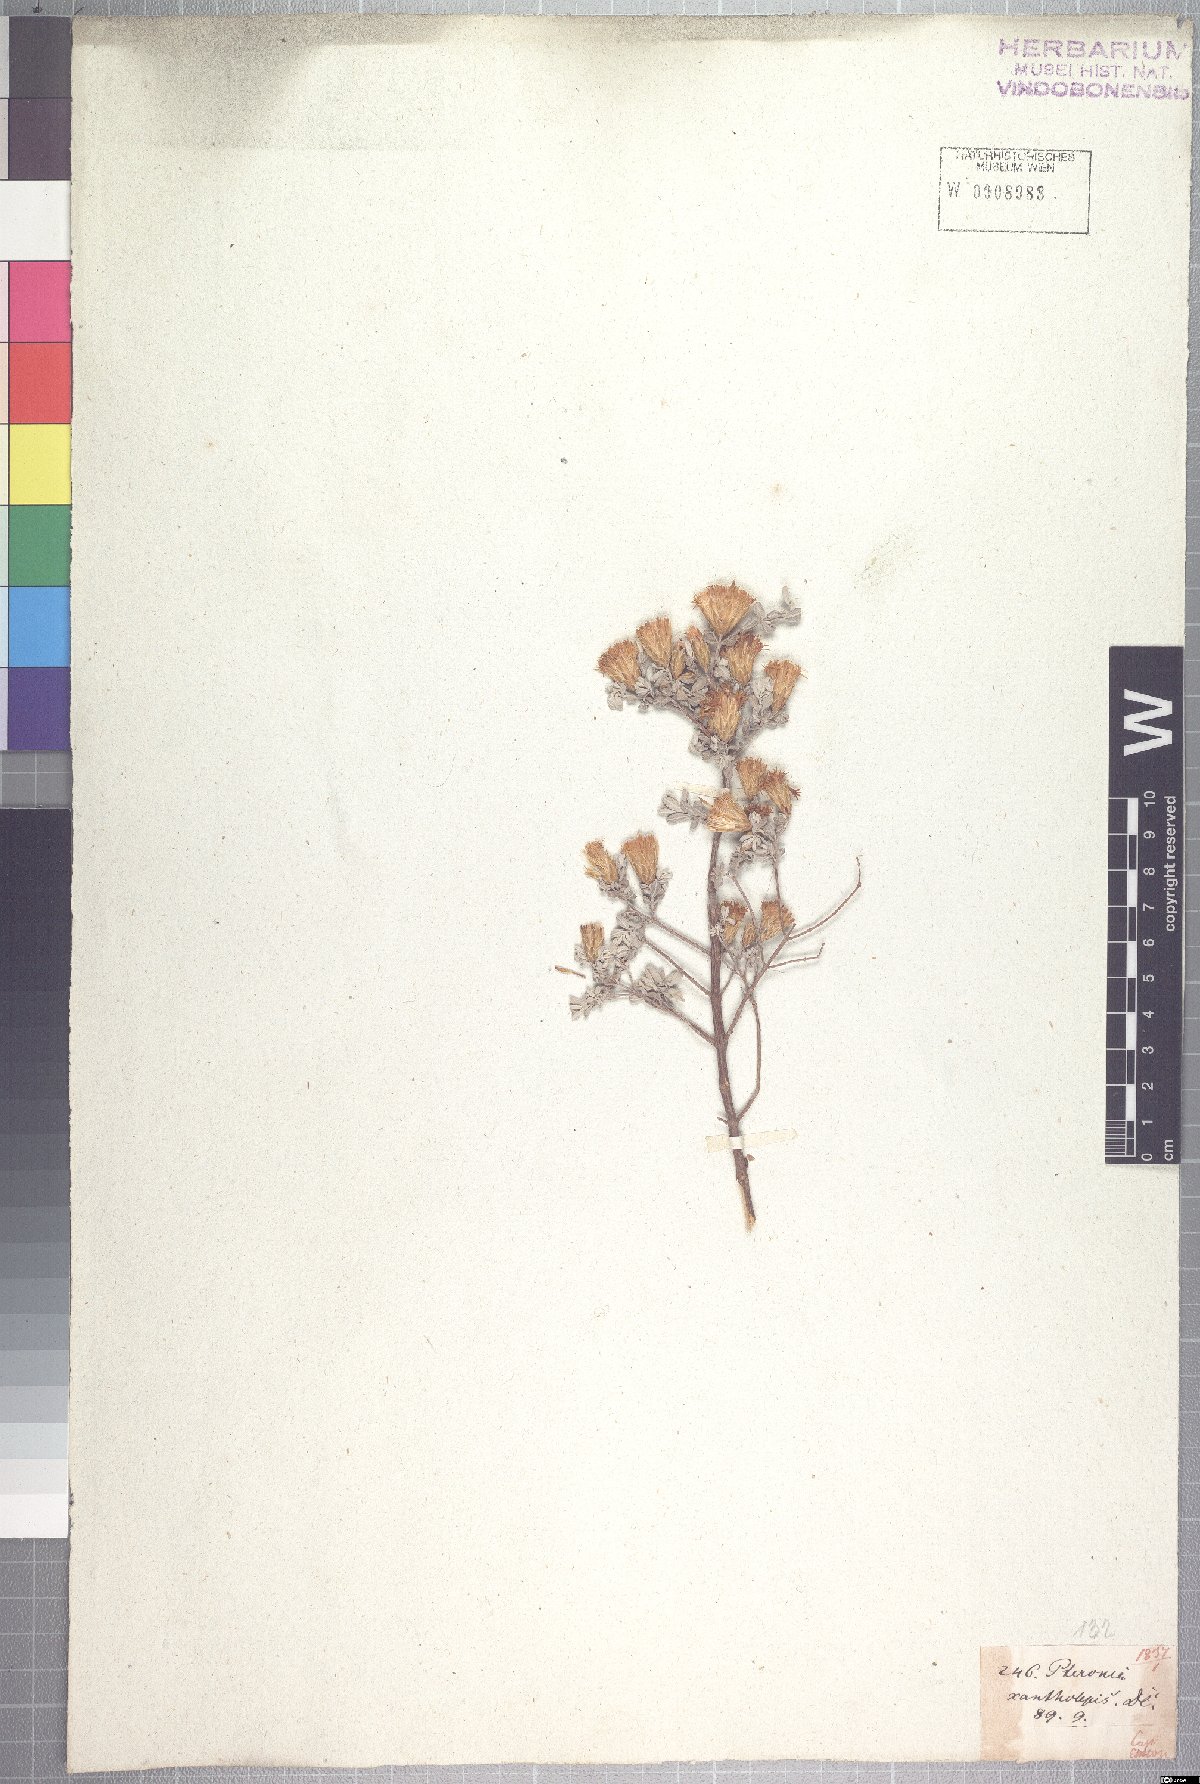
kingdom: Plantae
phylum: Tracheophyta
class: Magnoliopsida
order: Asterales
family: Asteraceae
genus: Pteronia
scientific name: Pteronia incana
